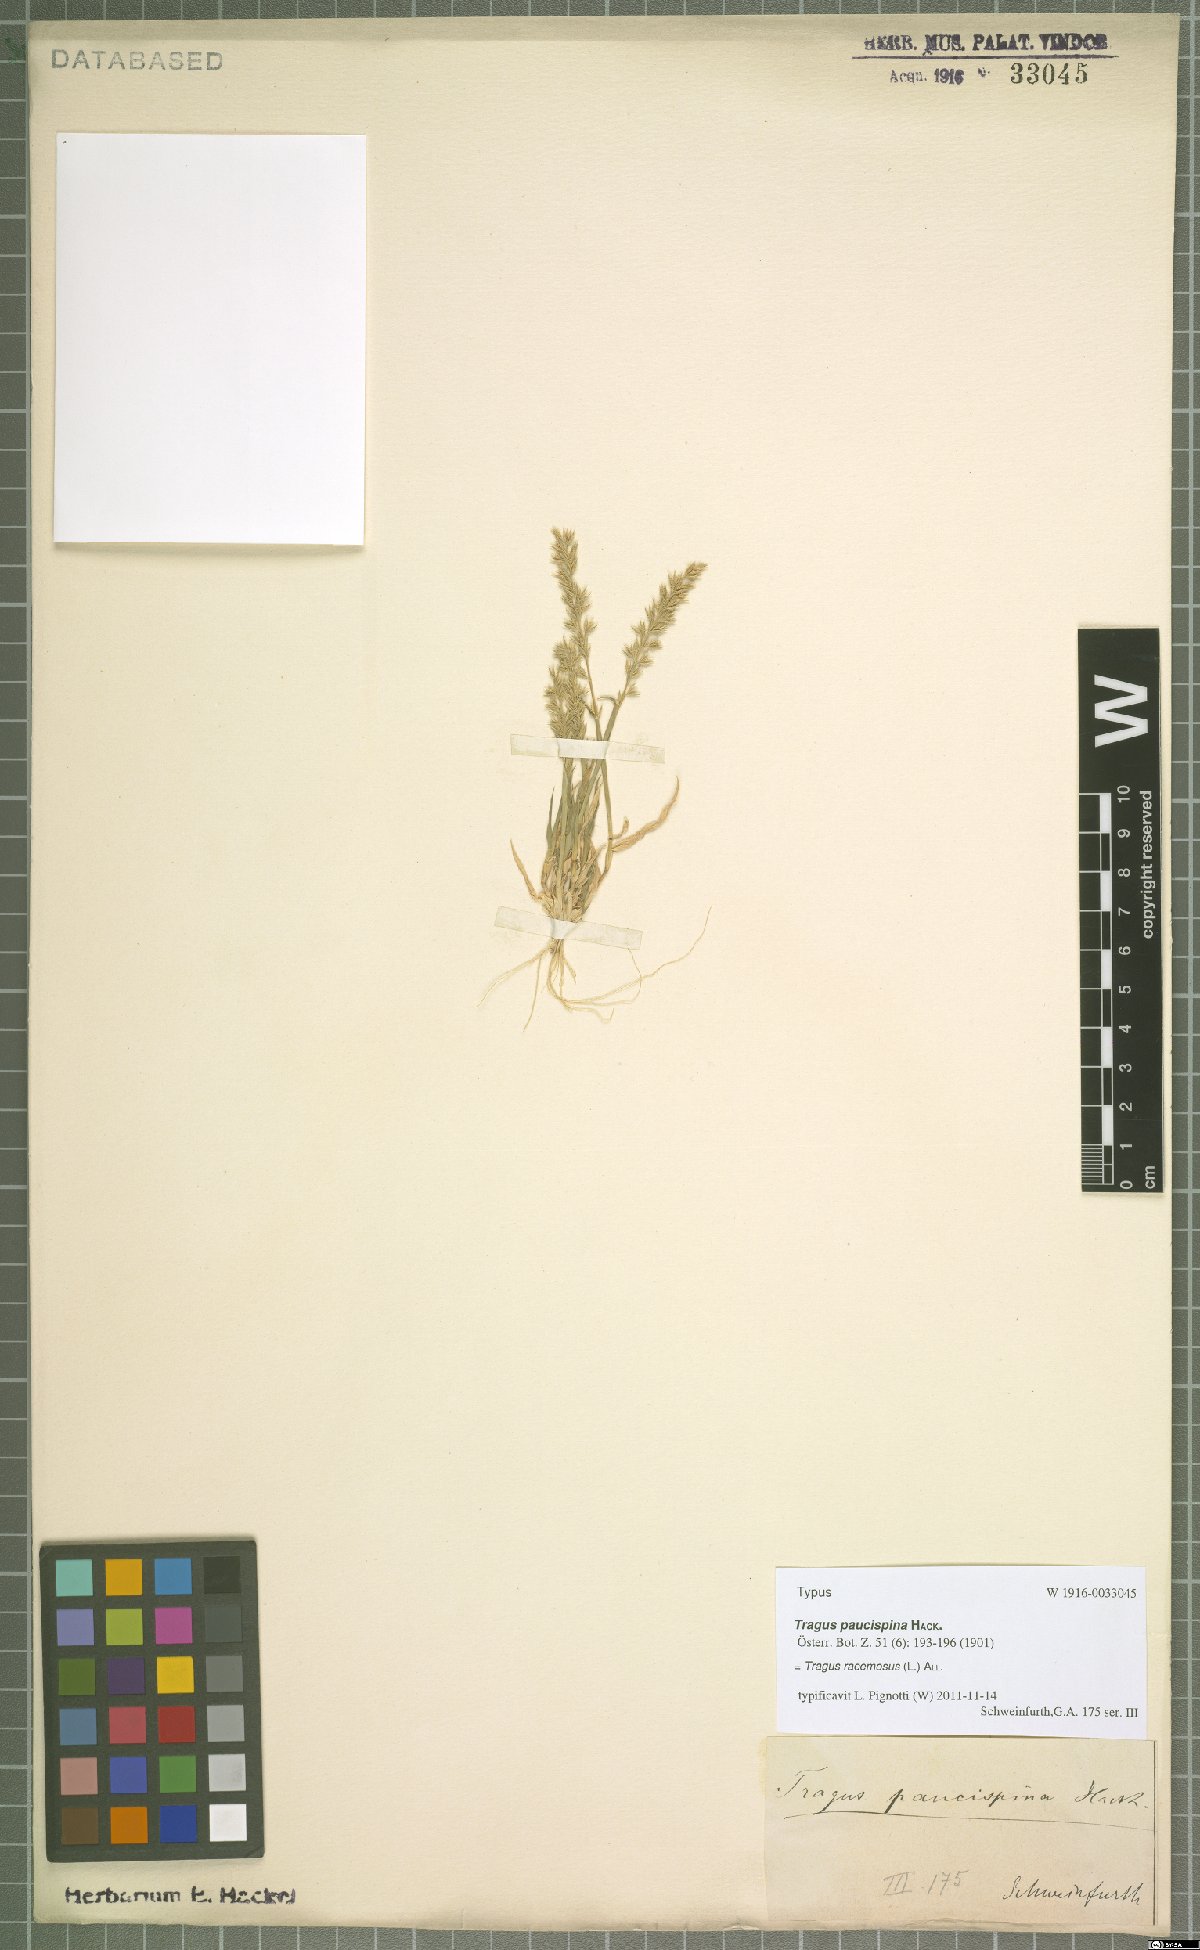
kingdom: Plantae
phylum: Tracheophyta
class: Liliopsida
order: Poales
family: Poaceae
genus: Tragus
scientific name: Tragus racemosus
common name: European bur-grass
